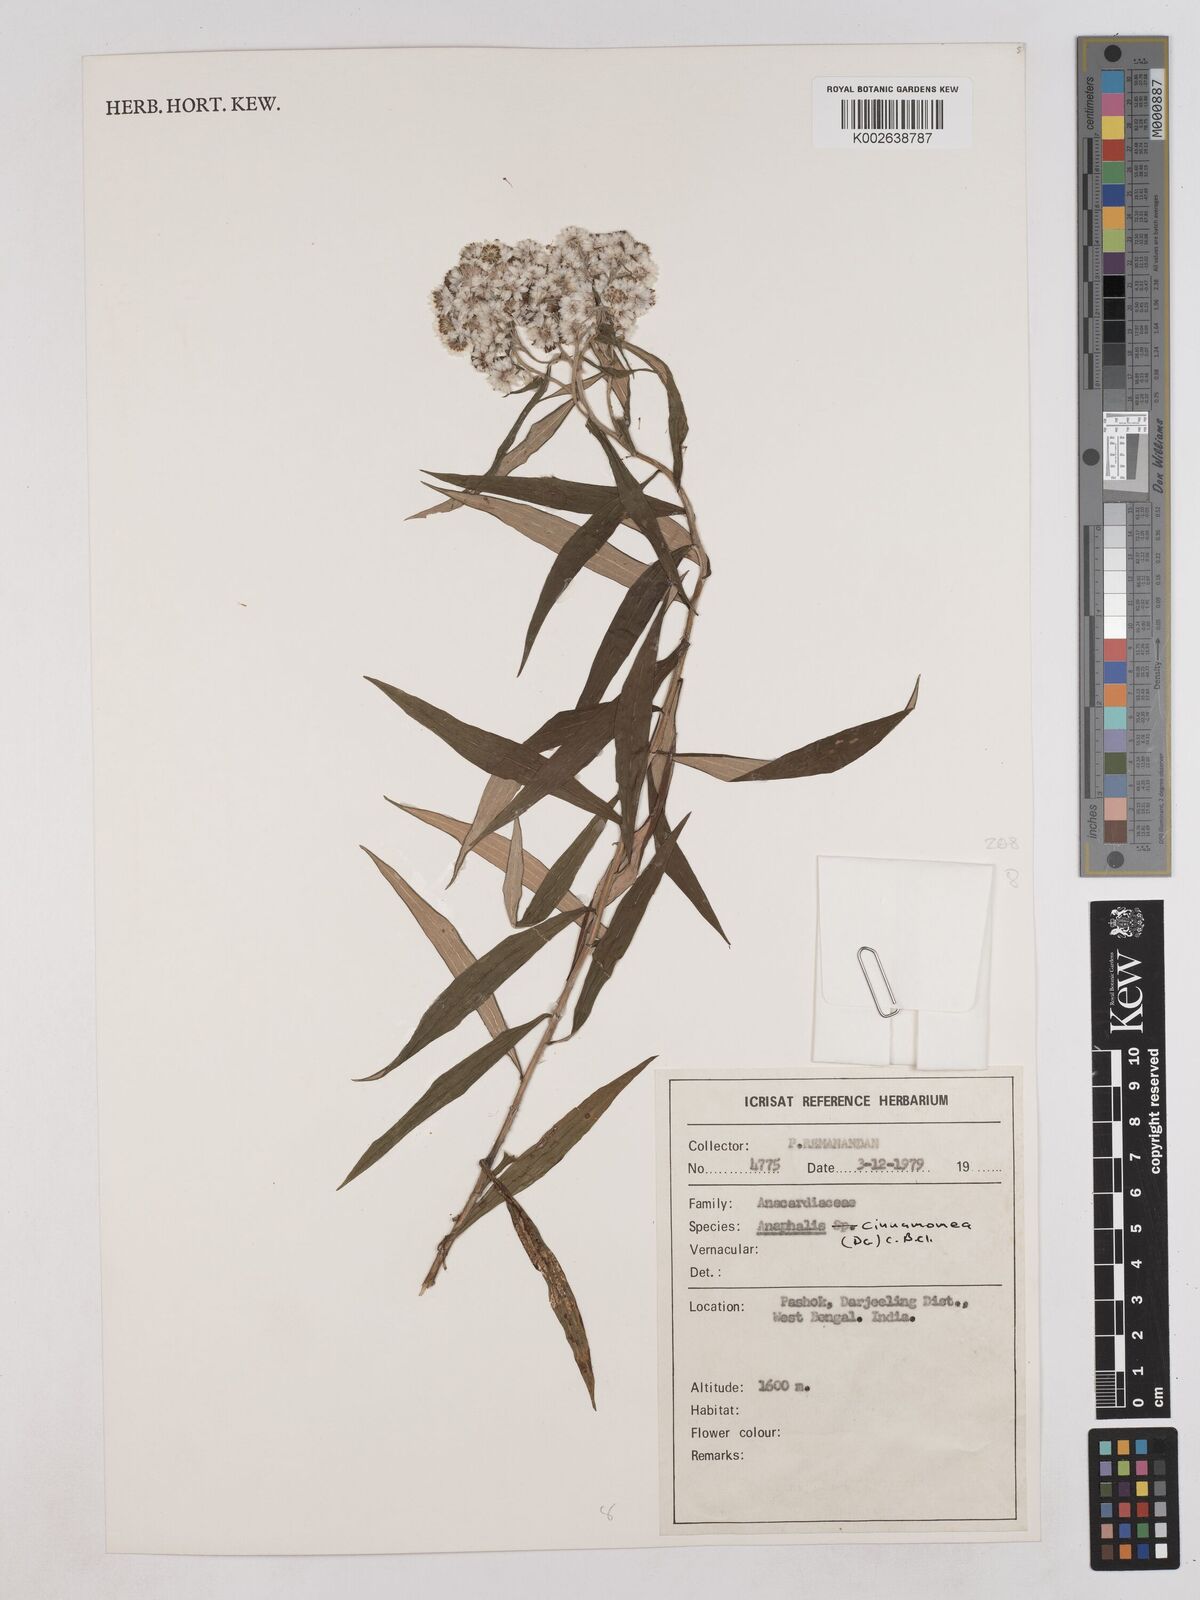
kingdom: Plantae
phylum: Tracheophyta
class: Magnoliopsida
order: Asterales
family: Asteraceae
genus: Anaphalis
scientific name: Anaphalis marcescens
